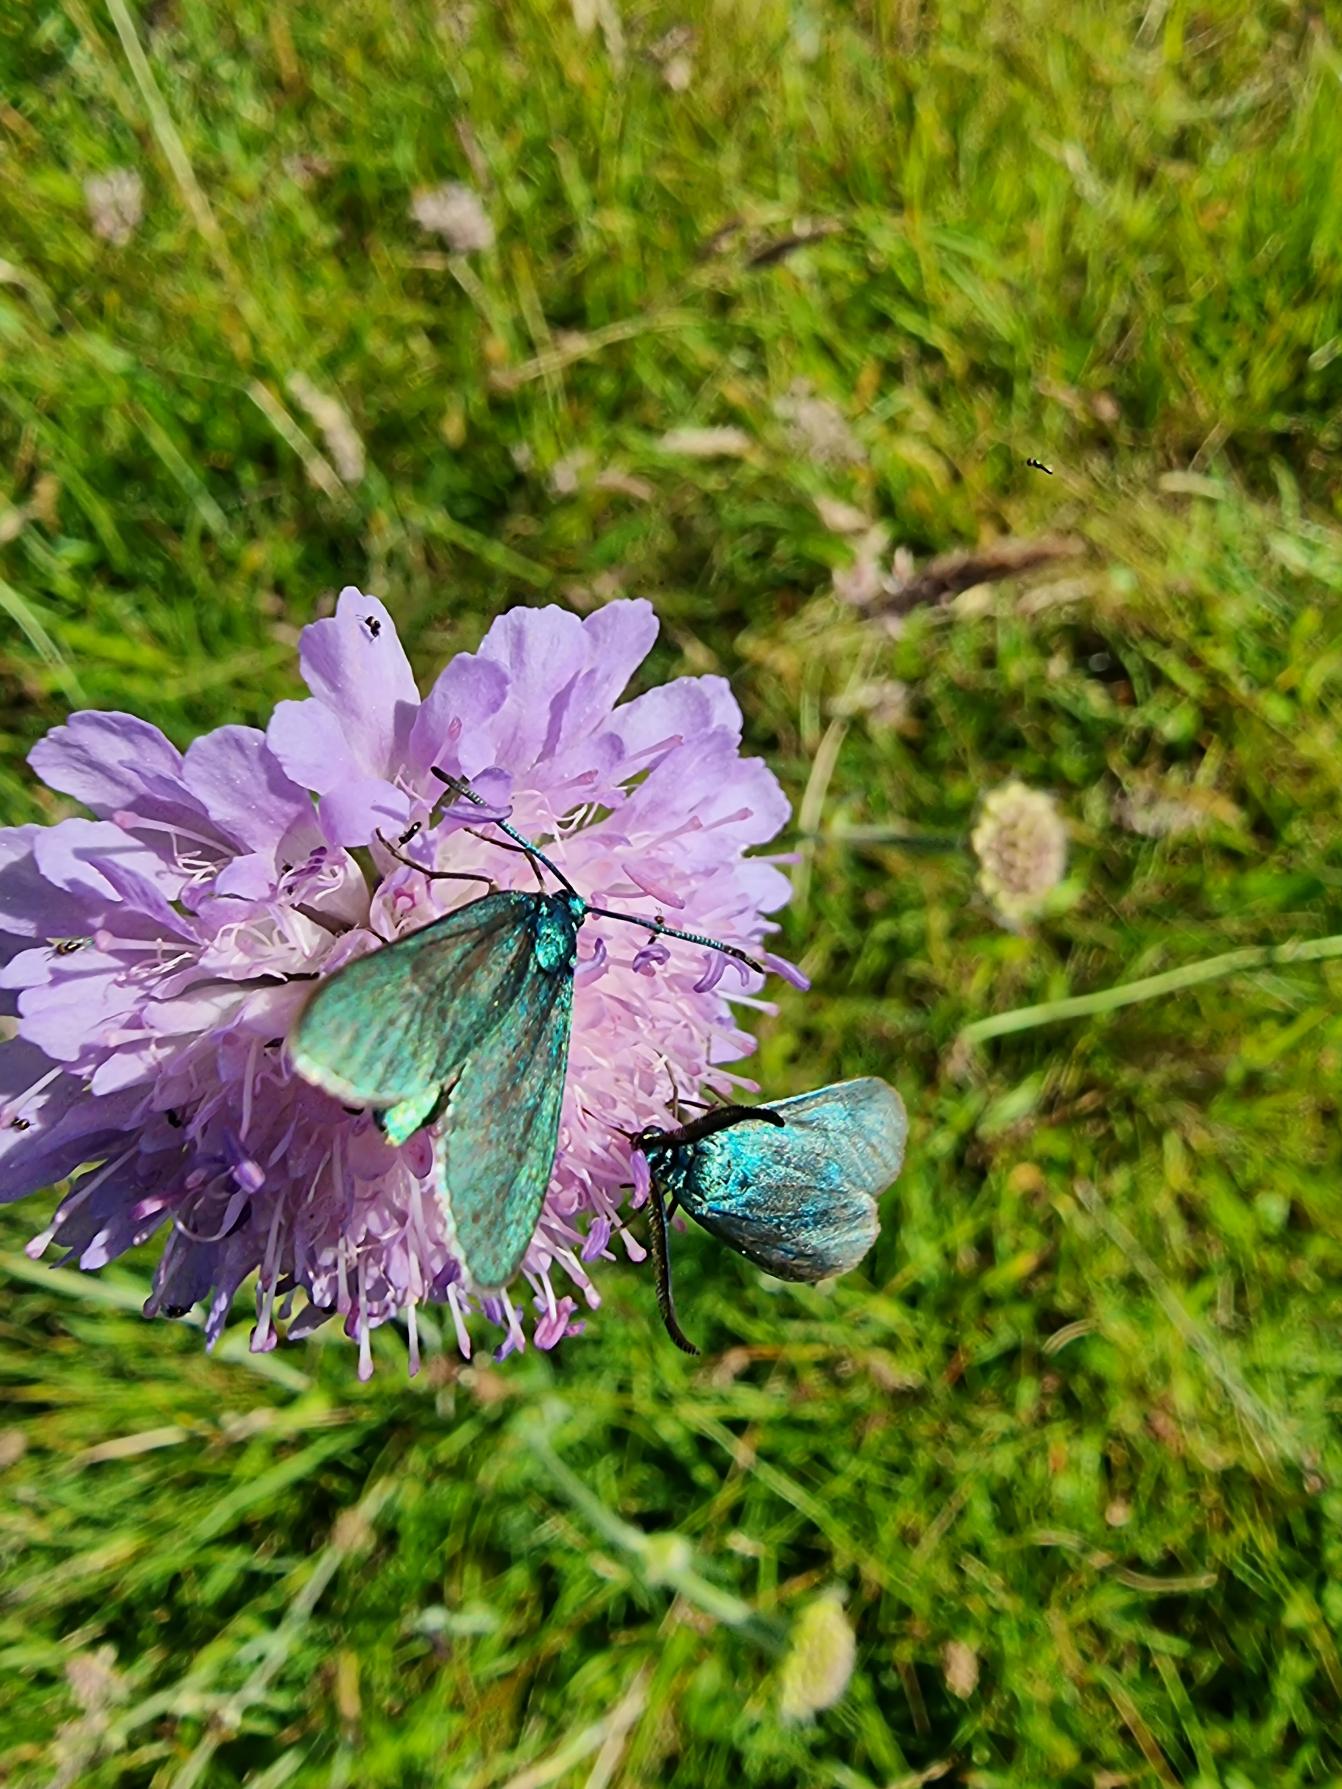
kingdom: Animalia
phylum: Arthropoda
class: Insecta
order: Lepidoptera
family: Zygaenidae
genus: Adscita
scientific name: Adscita statices
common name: Metalvinge
